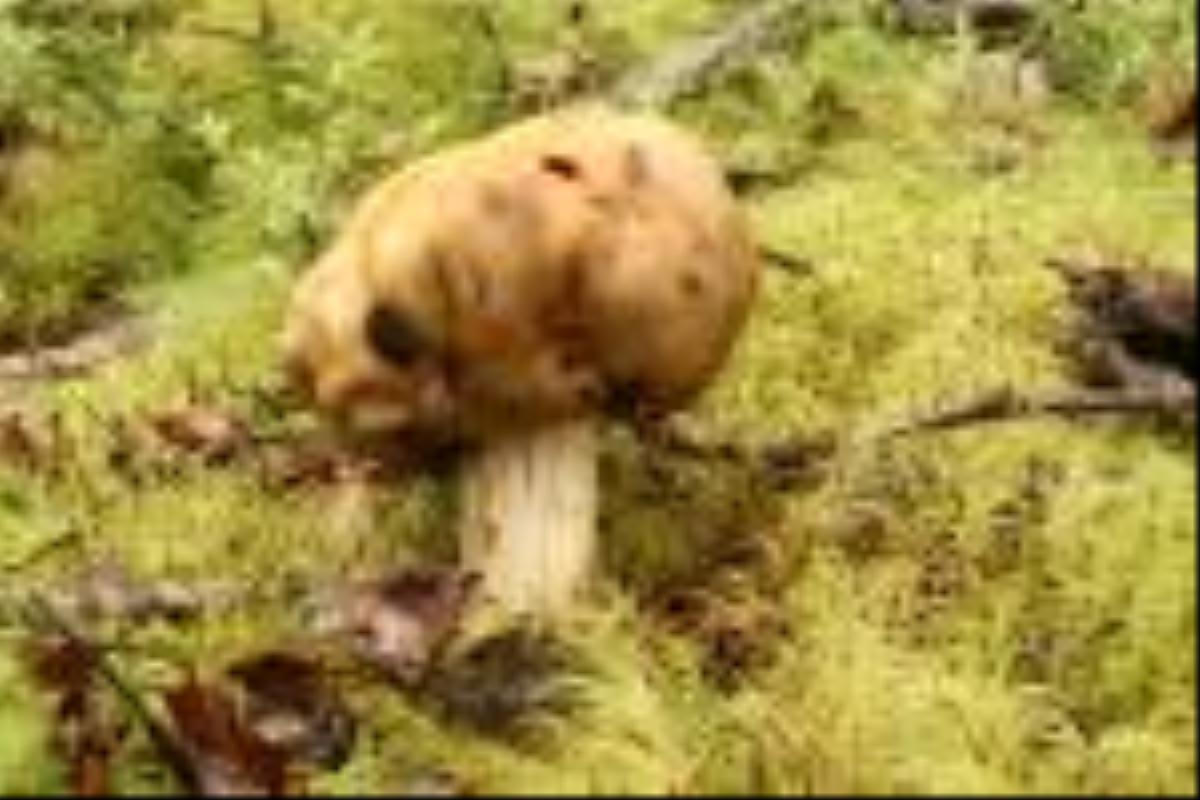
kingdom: Fungi
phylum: Basidiomycota
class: Agaricomycetes
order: Agaricales
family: Cortinariaceae
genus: Cortinarius
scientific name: Cortinarius epiphaeus
